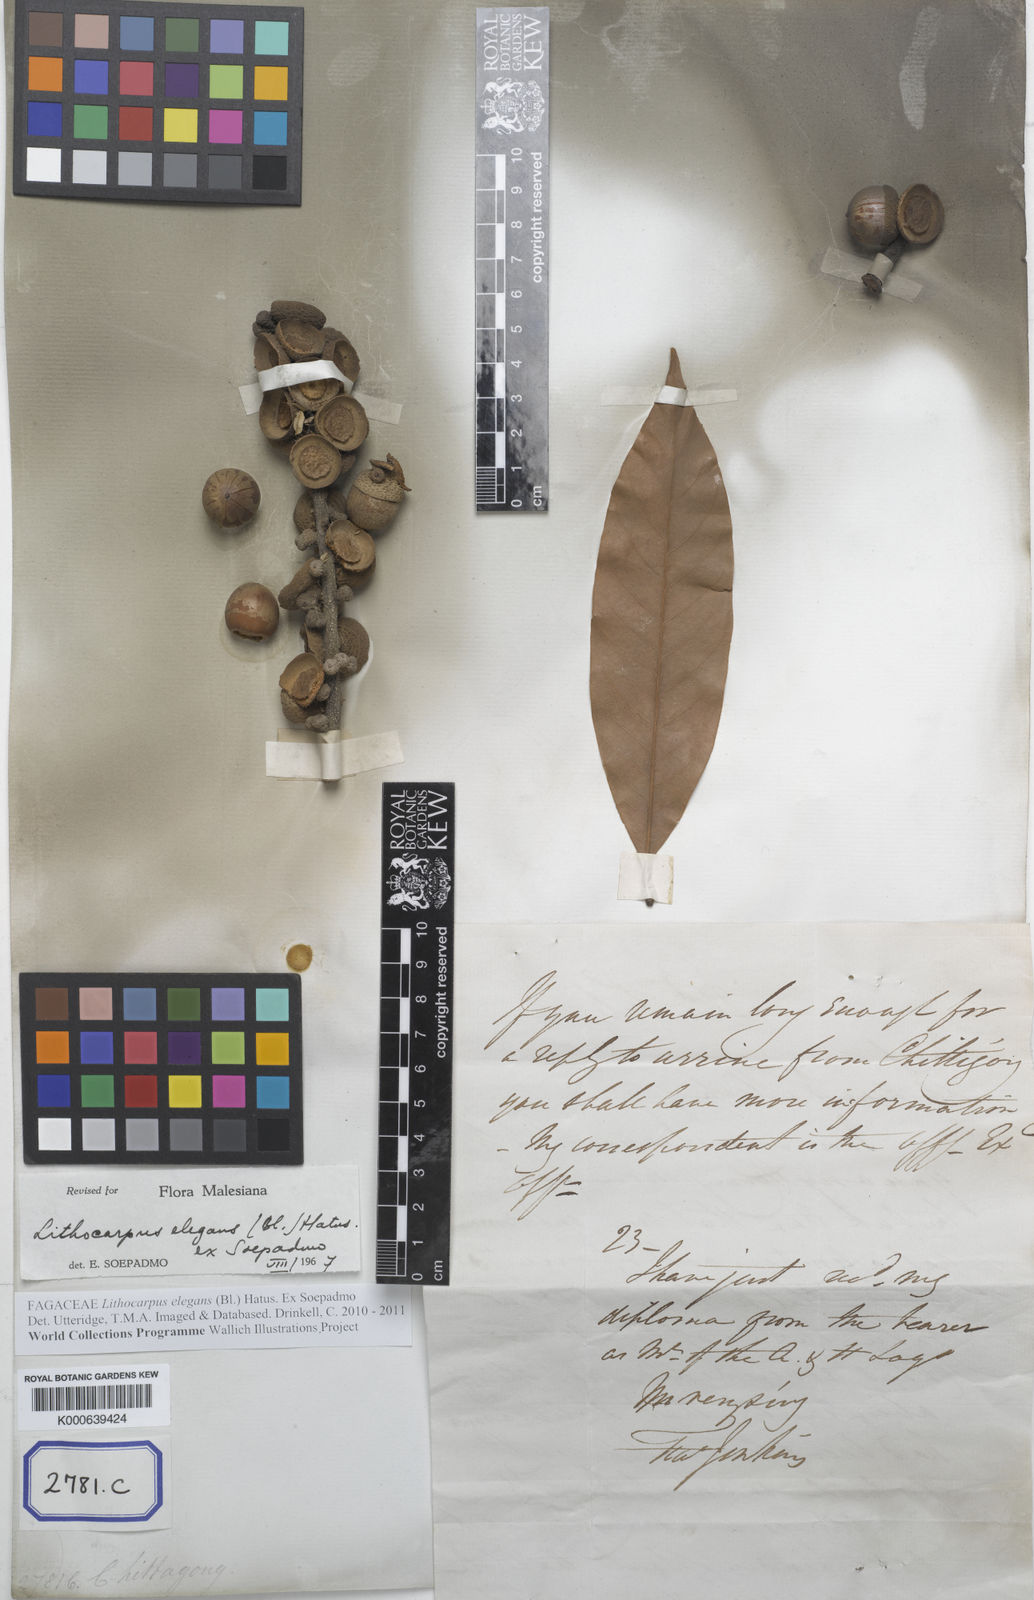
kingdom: Plantae
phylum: Tracheophyta
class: Magnoliopsida
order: Fagales
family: Fagaceae
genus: Quercus
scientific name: Quercus
